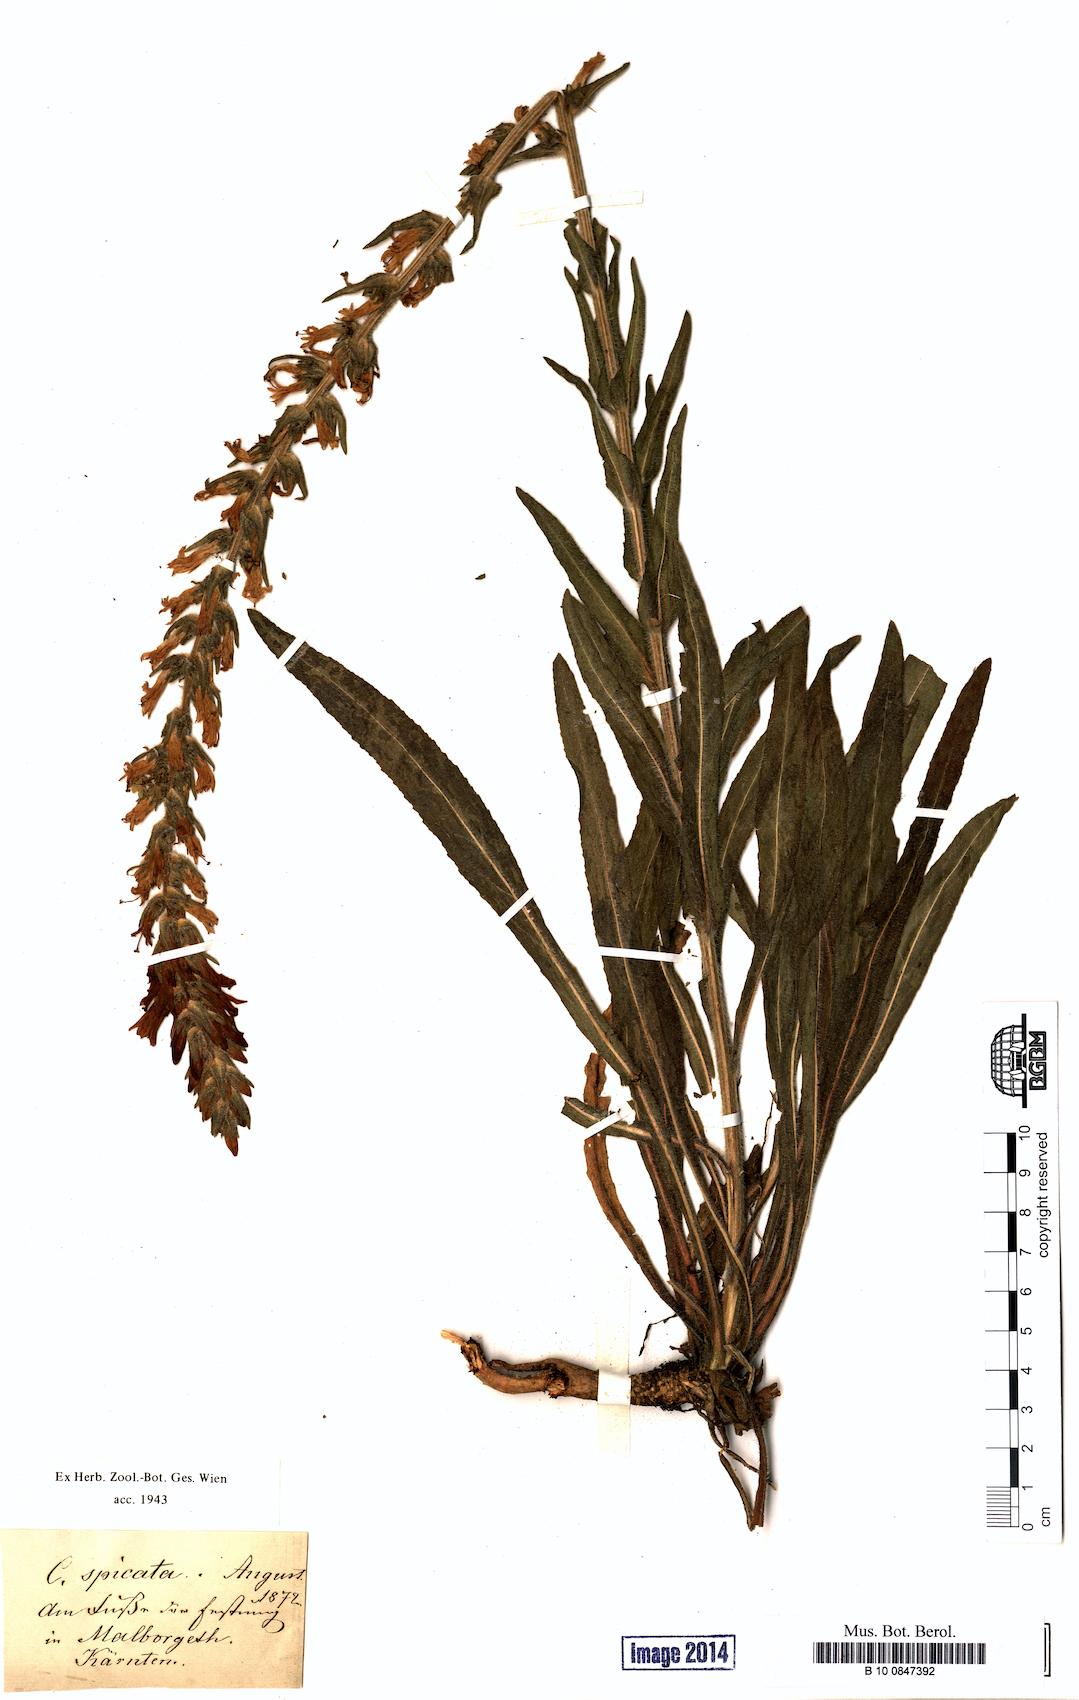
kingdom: Plantae
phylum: Tracheophyta
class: Magnoliopsida
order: Asterales
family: Campanulaceae
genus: Campanula
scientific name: Campanula spicata
